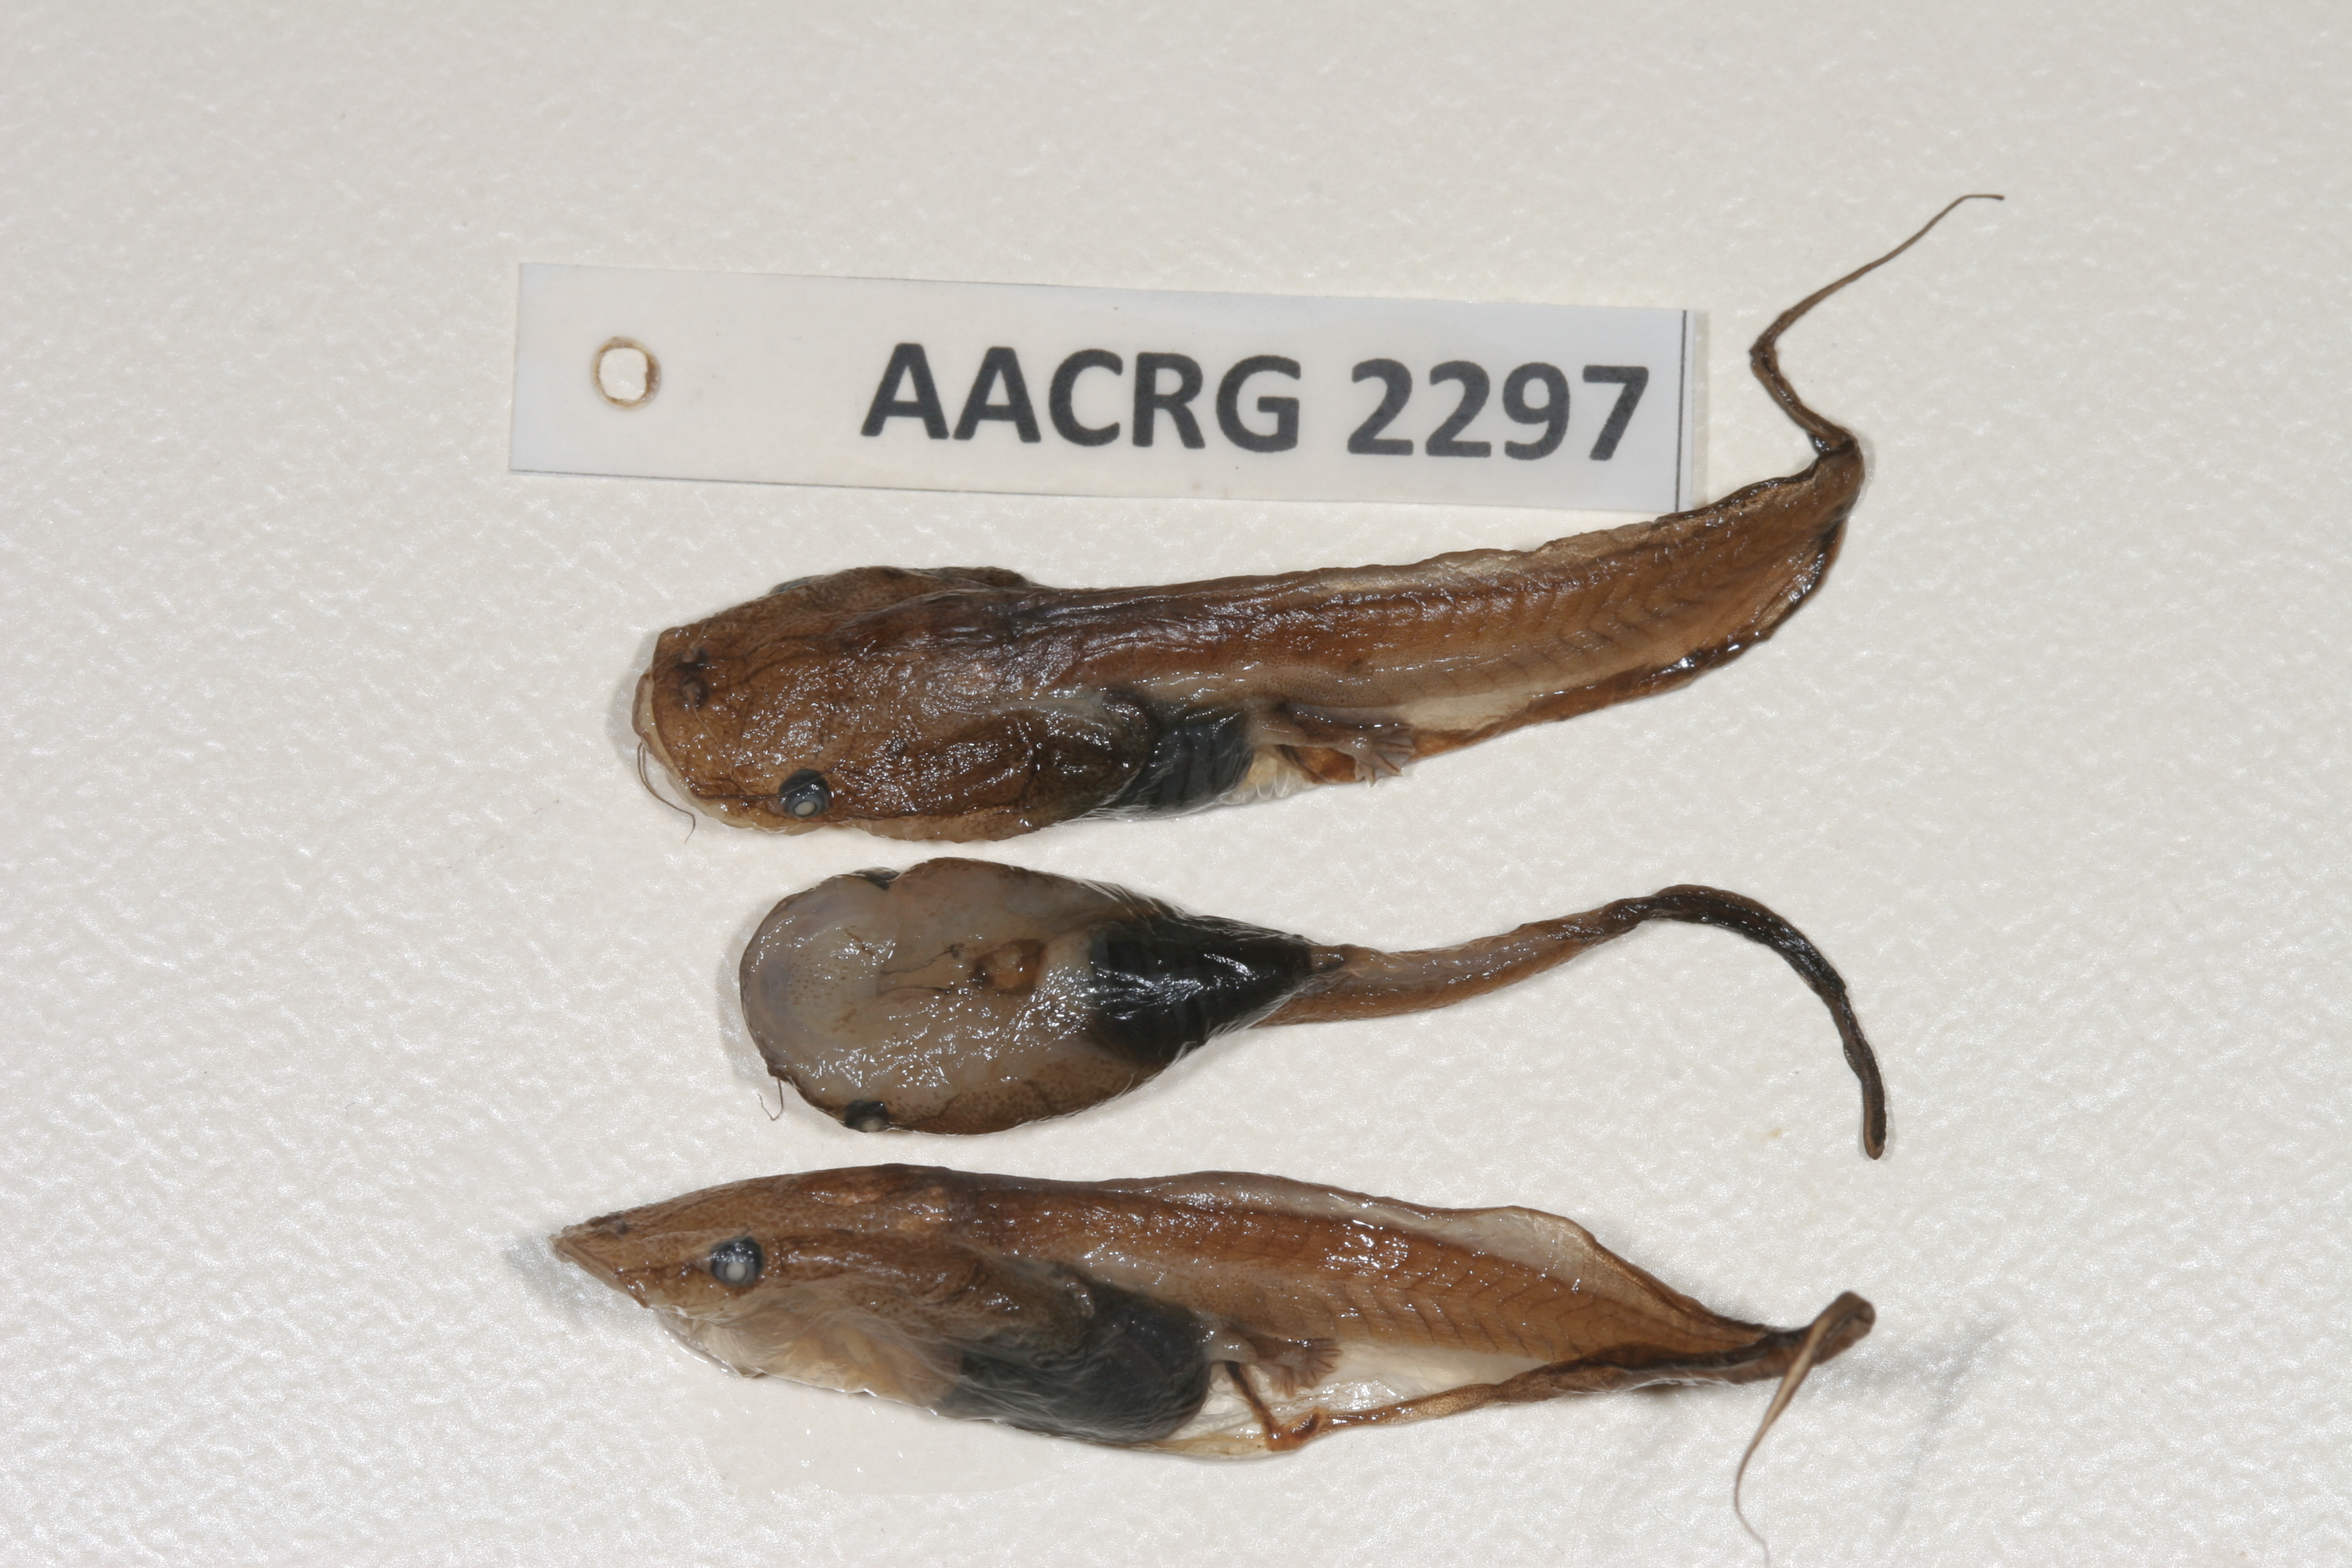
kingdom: Animalia
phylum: Chordata
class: Amphibia
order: Anura
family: Pipidae
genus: Xenopus
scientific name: Xenopus gilli
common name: Gill's platanna
